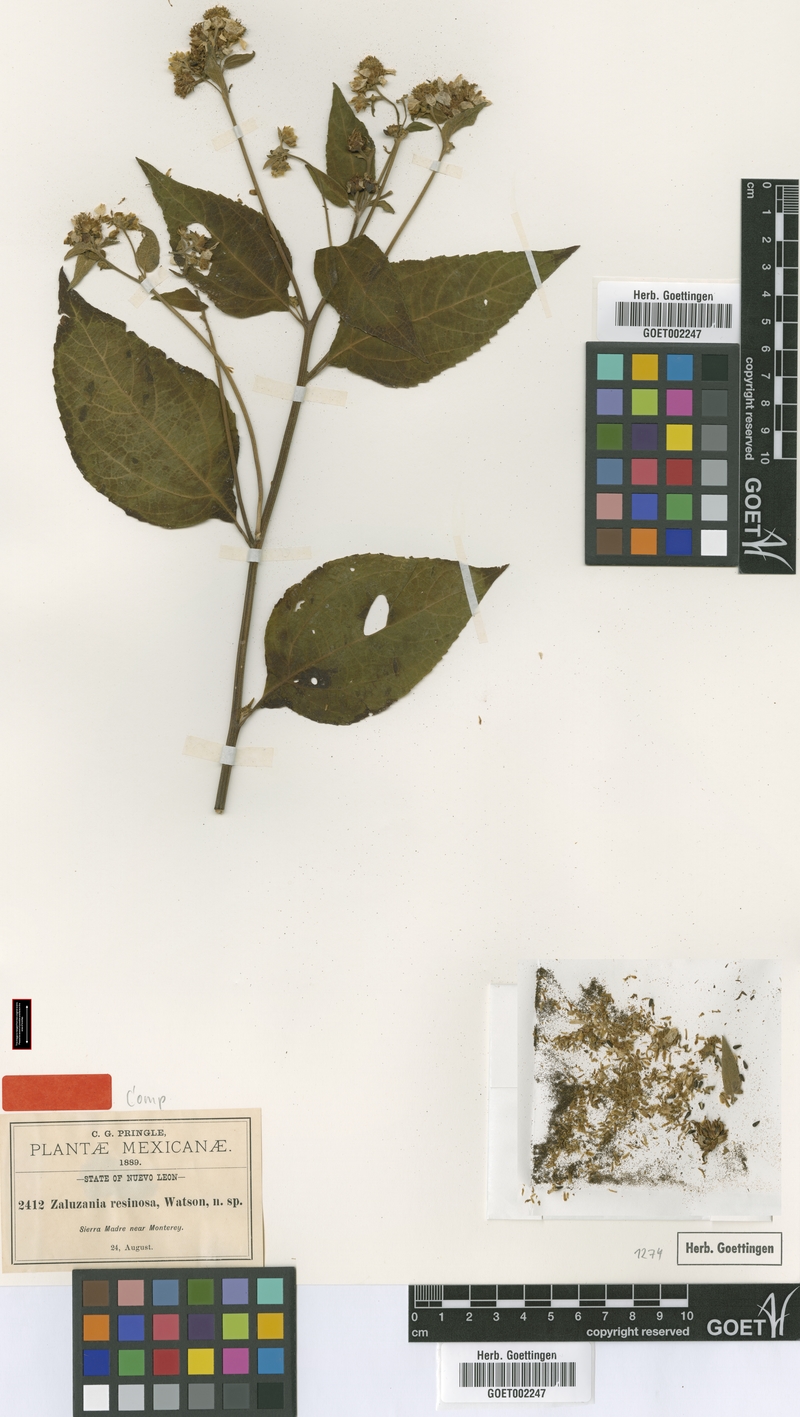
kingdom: Plantae
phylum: Tracheophyta
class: Magnoliopsida
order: Asterales
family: Asteraceae
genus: Greenmaniella
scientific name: Greenmaniella resinosa
